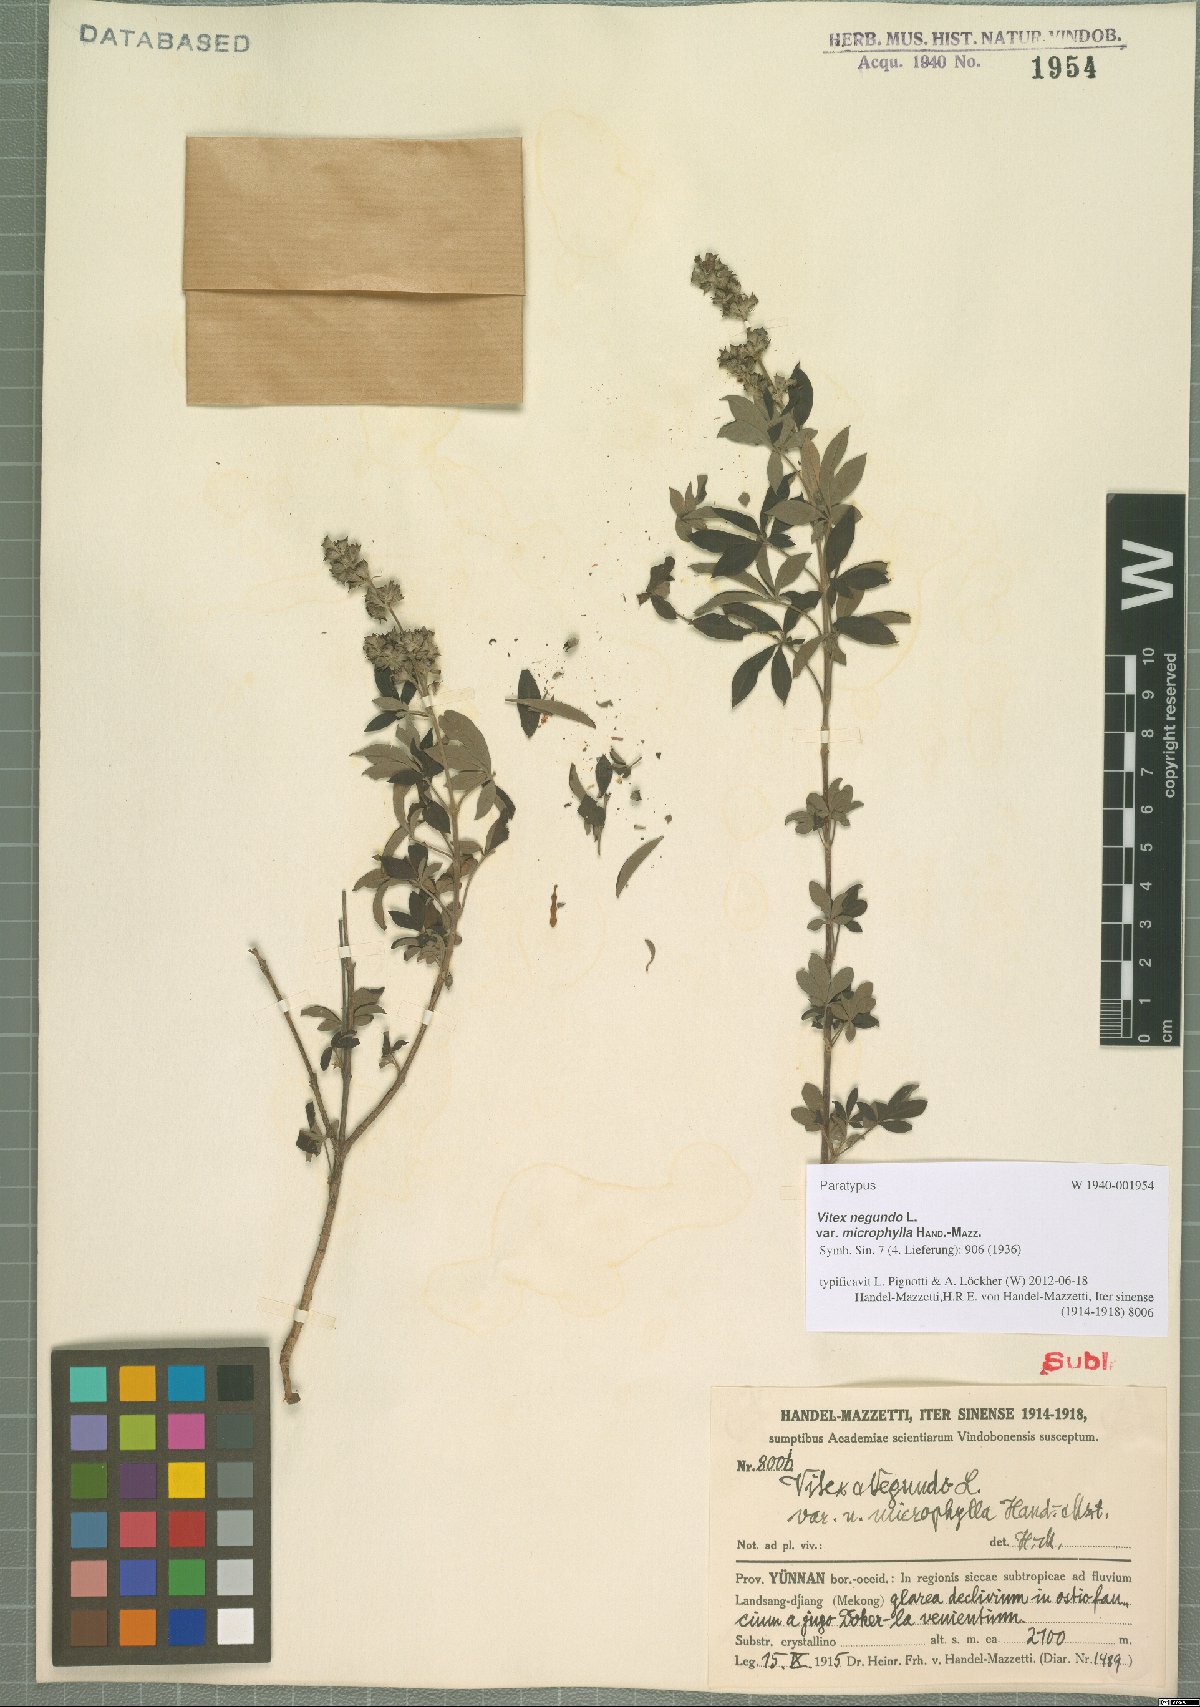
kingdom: Plantae
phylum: Tracheophyta
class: Magnoliopsida
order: Lamiales
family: Lamiaceae
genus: Vitex
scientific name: Vitex negundo
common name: Chinese chastetree
